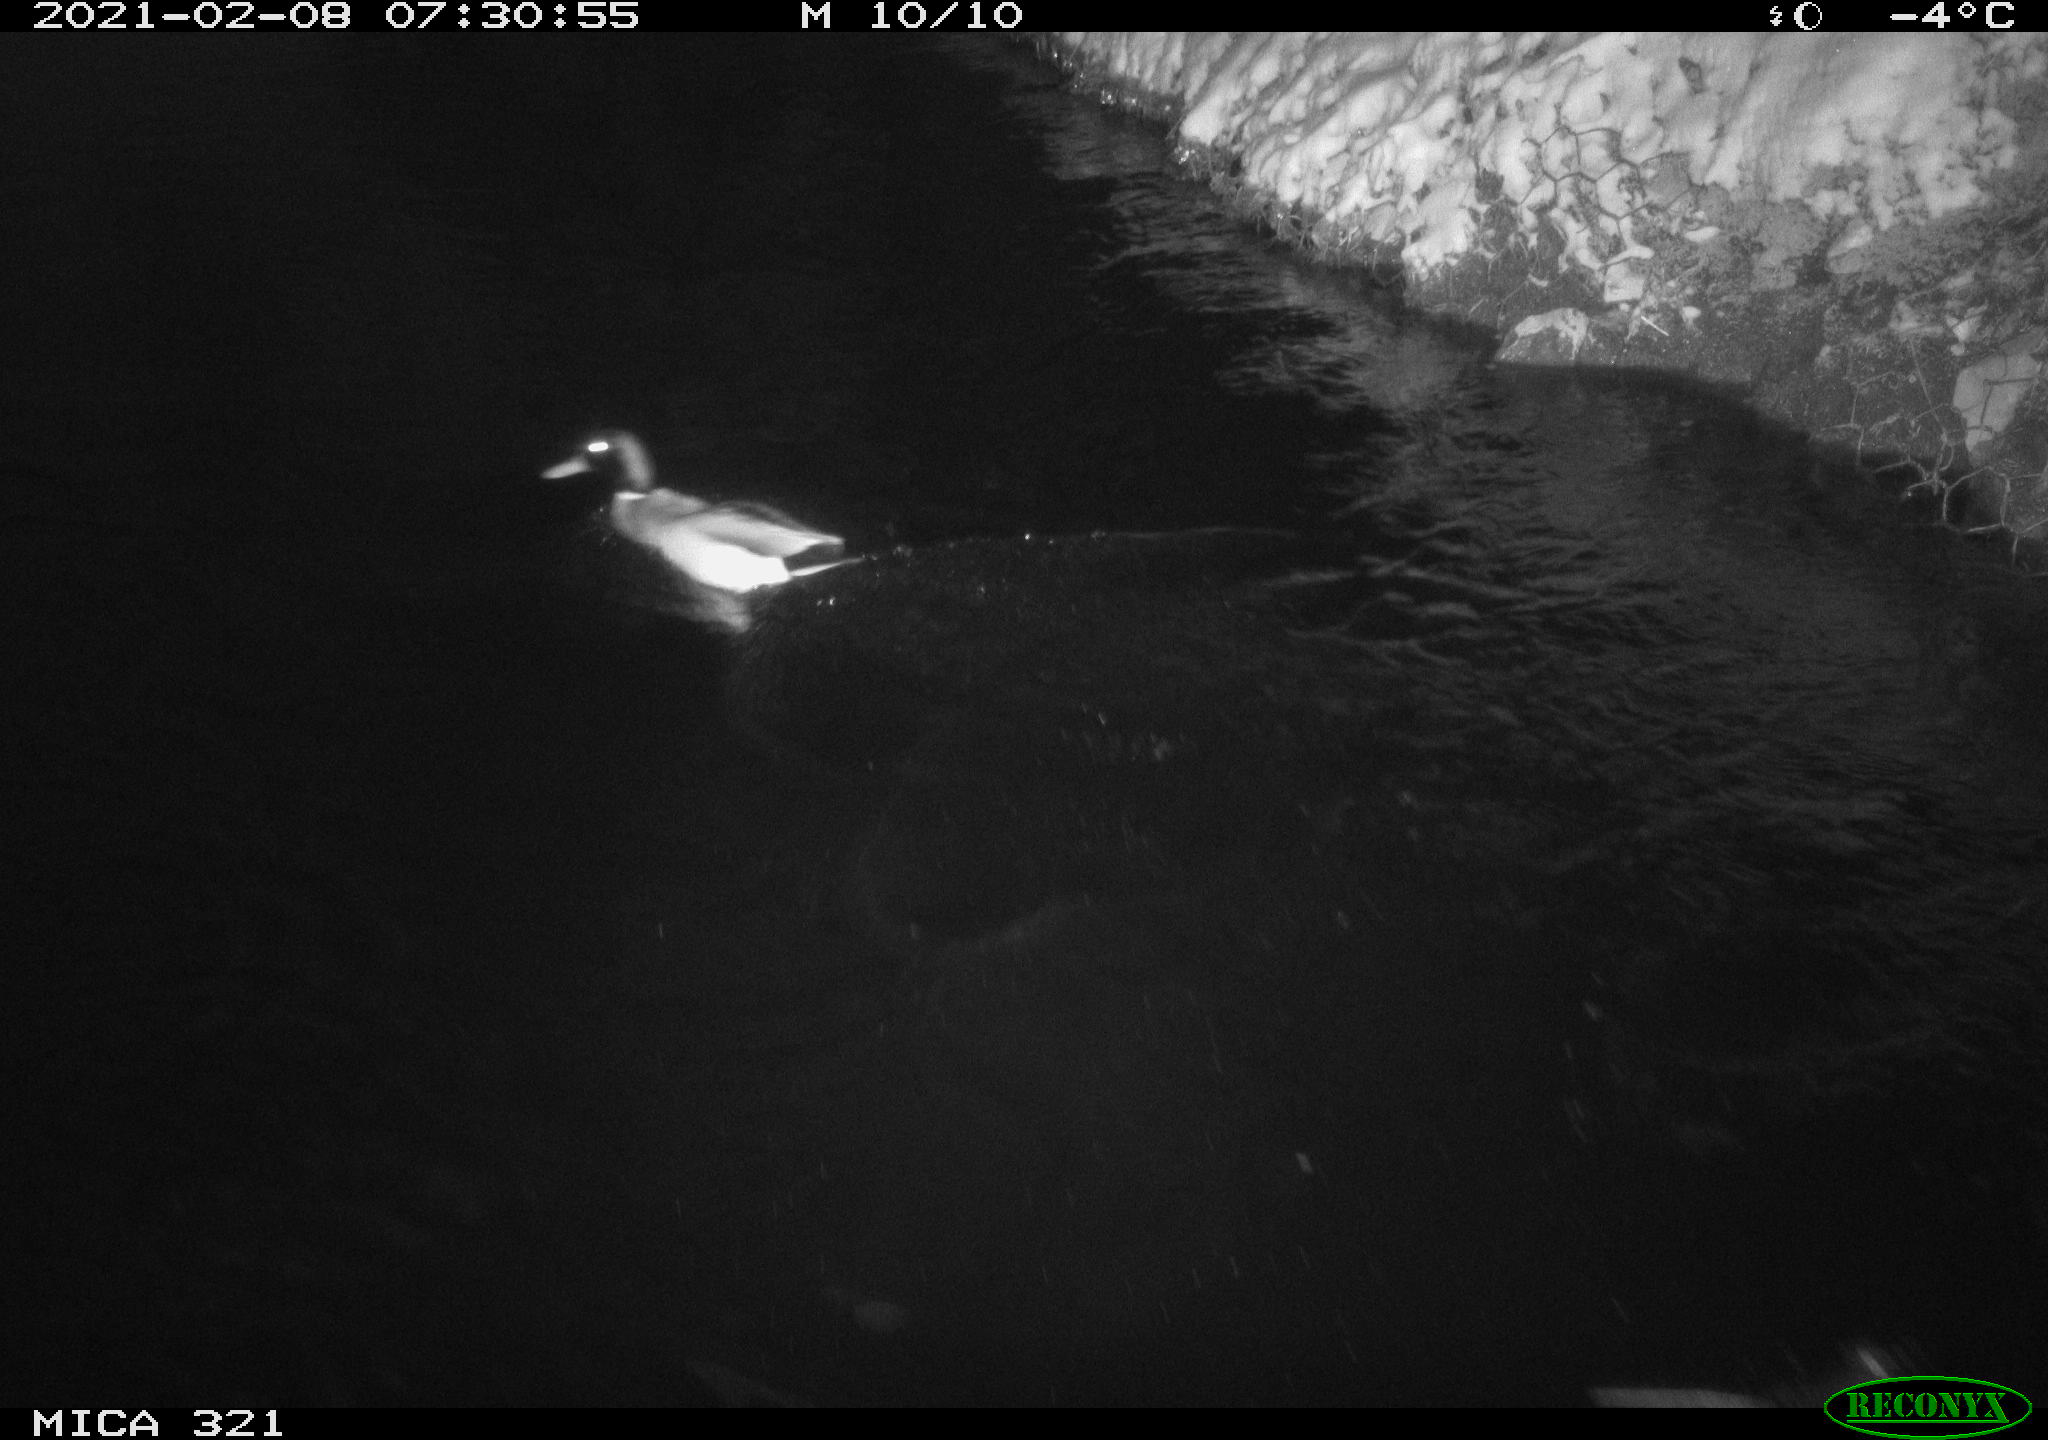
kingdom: Animalia
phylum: Chordata
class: Aves
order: Anseriformes
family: Anatidae
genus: Anas
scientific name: Anas platyrhynchos
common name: Mallard
